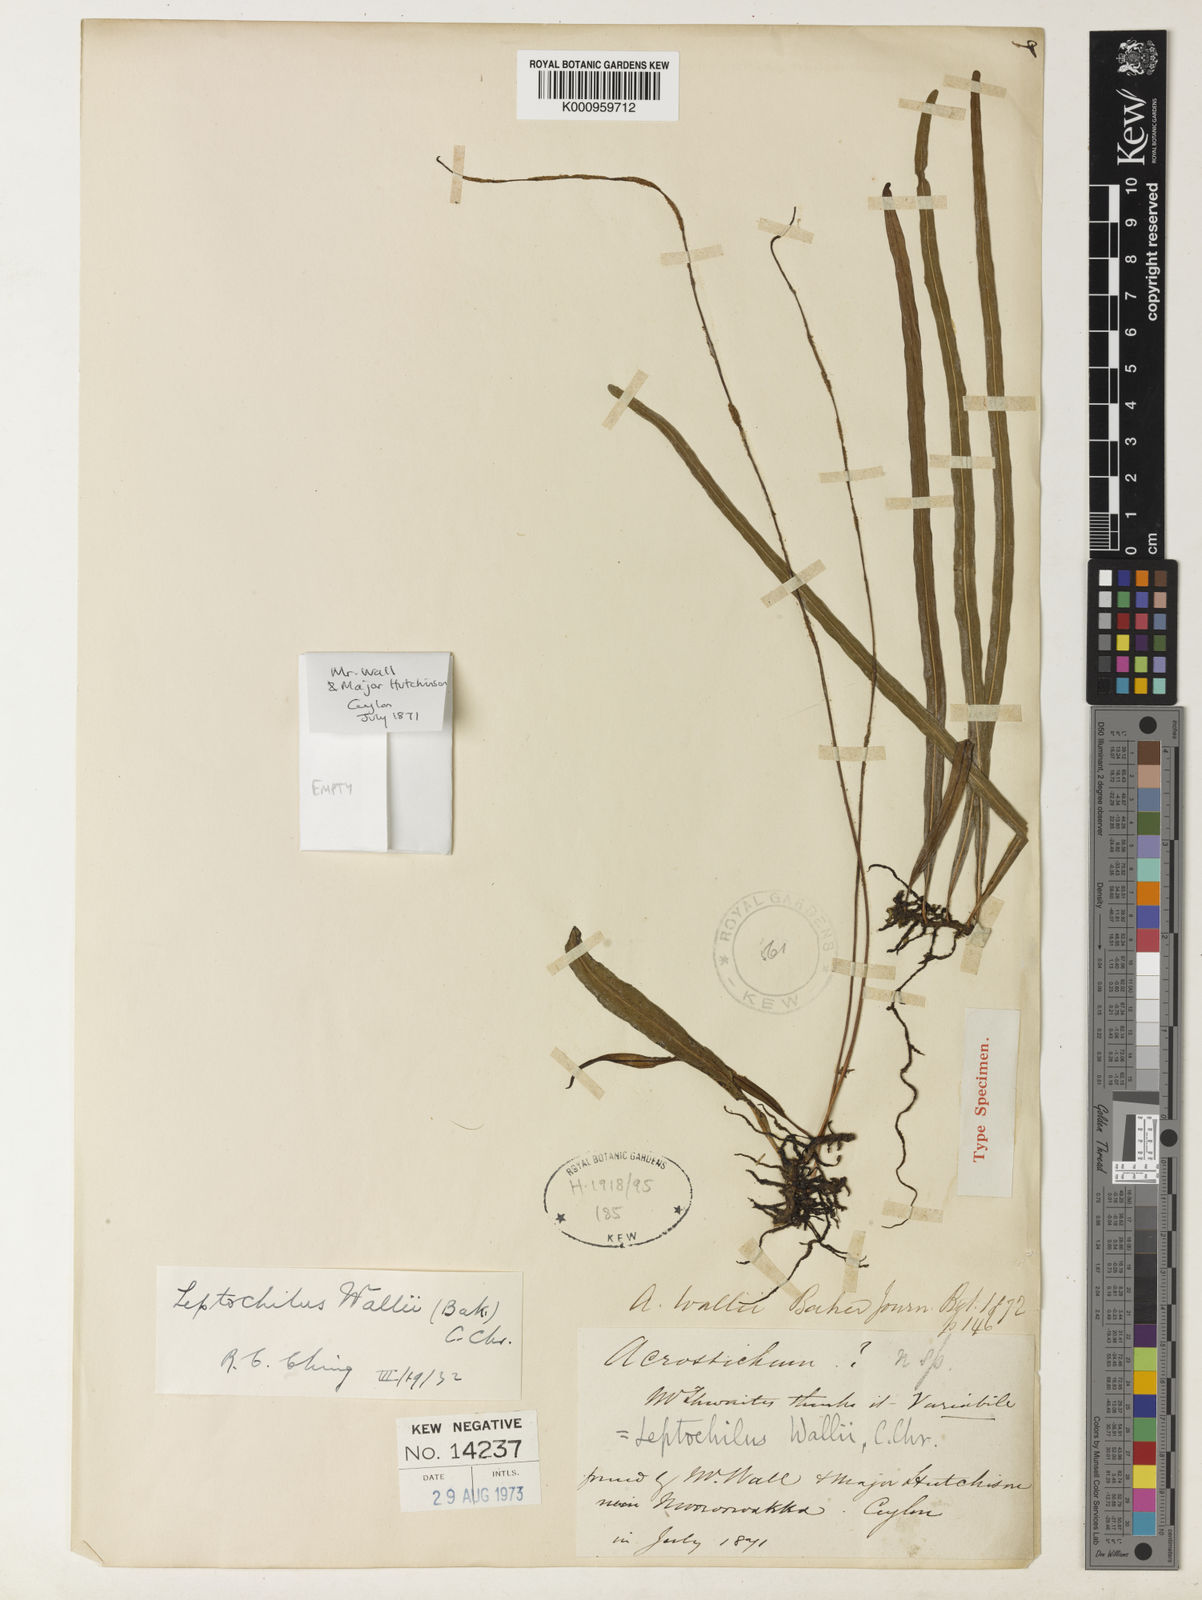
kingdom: Plantae
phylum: Tracheophyta
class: Polypodiopsida
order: Polypodiales
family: Polypodiaceae
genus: Leptochilus
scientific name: Leptochilus decurrens
